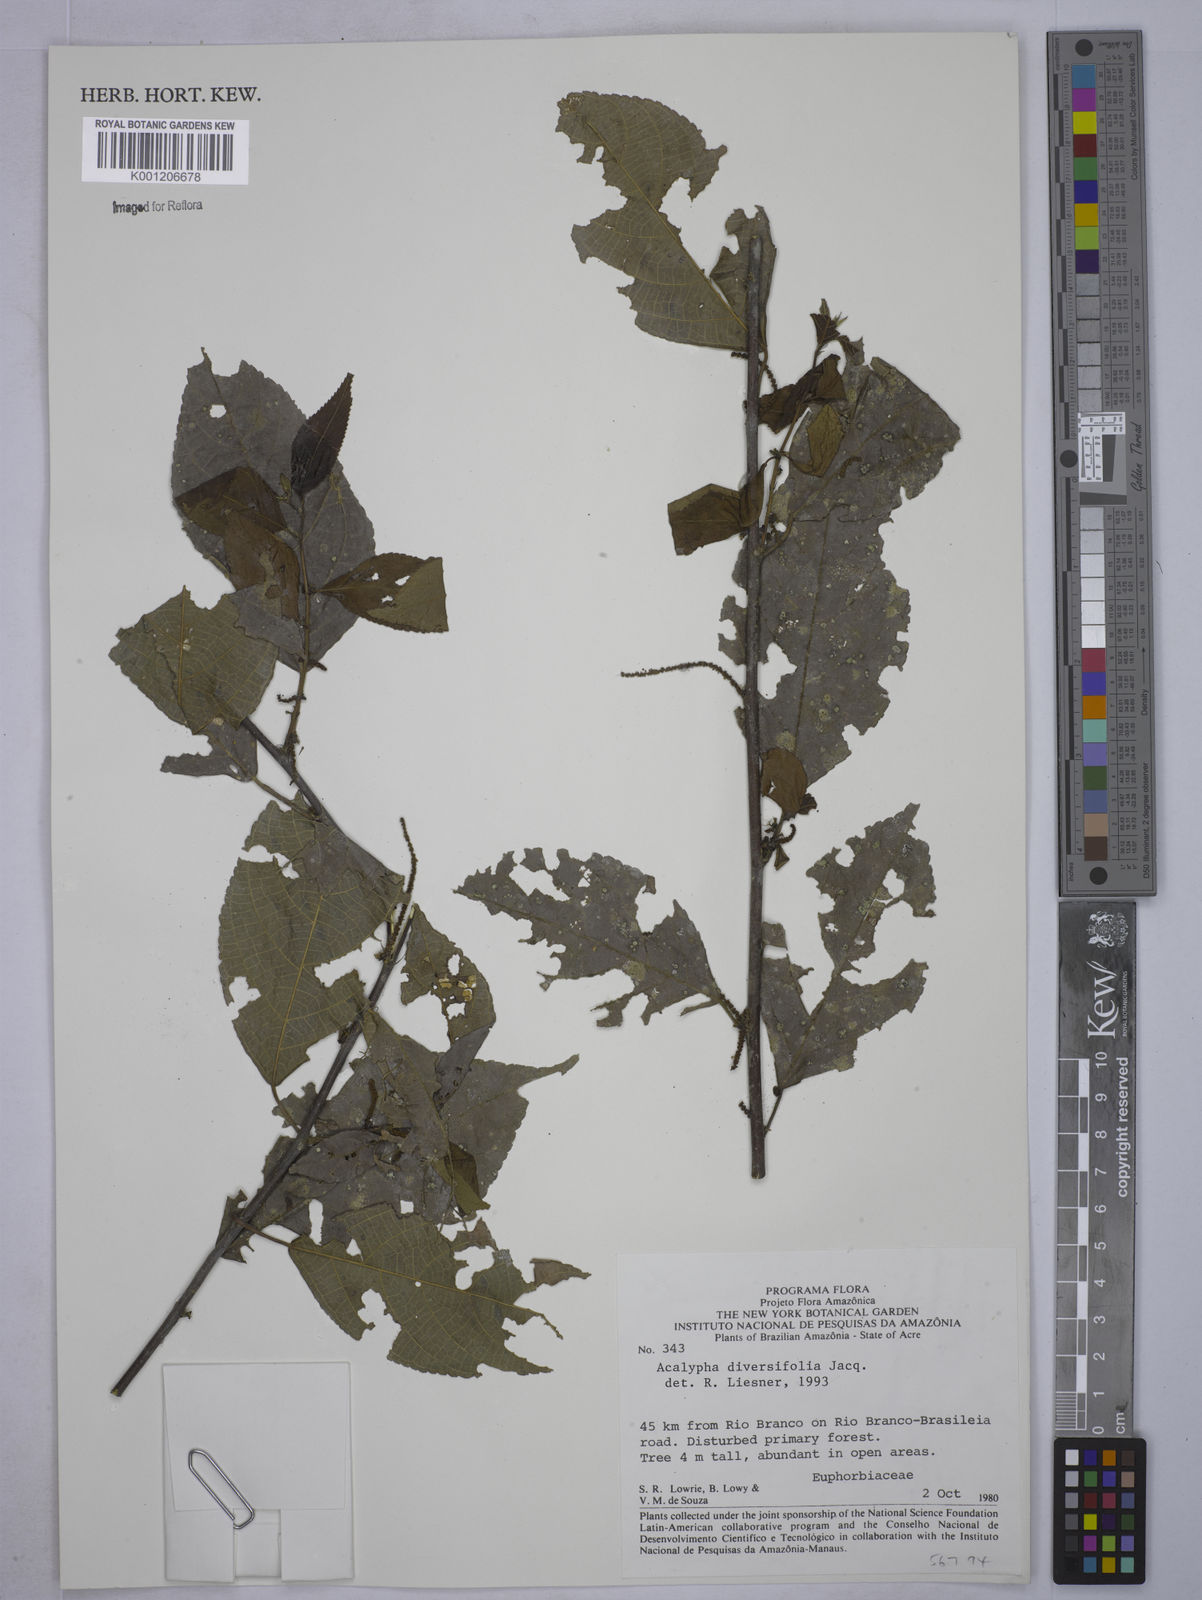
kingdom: Plantae
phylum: Tracheophyta
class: Magnoliopsida
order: Malpighiales
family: Euphorbiaceae
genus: Acalypha
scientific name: Acalypha diversifolia
